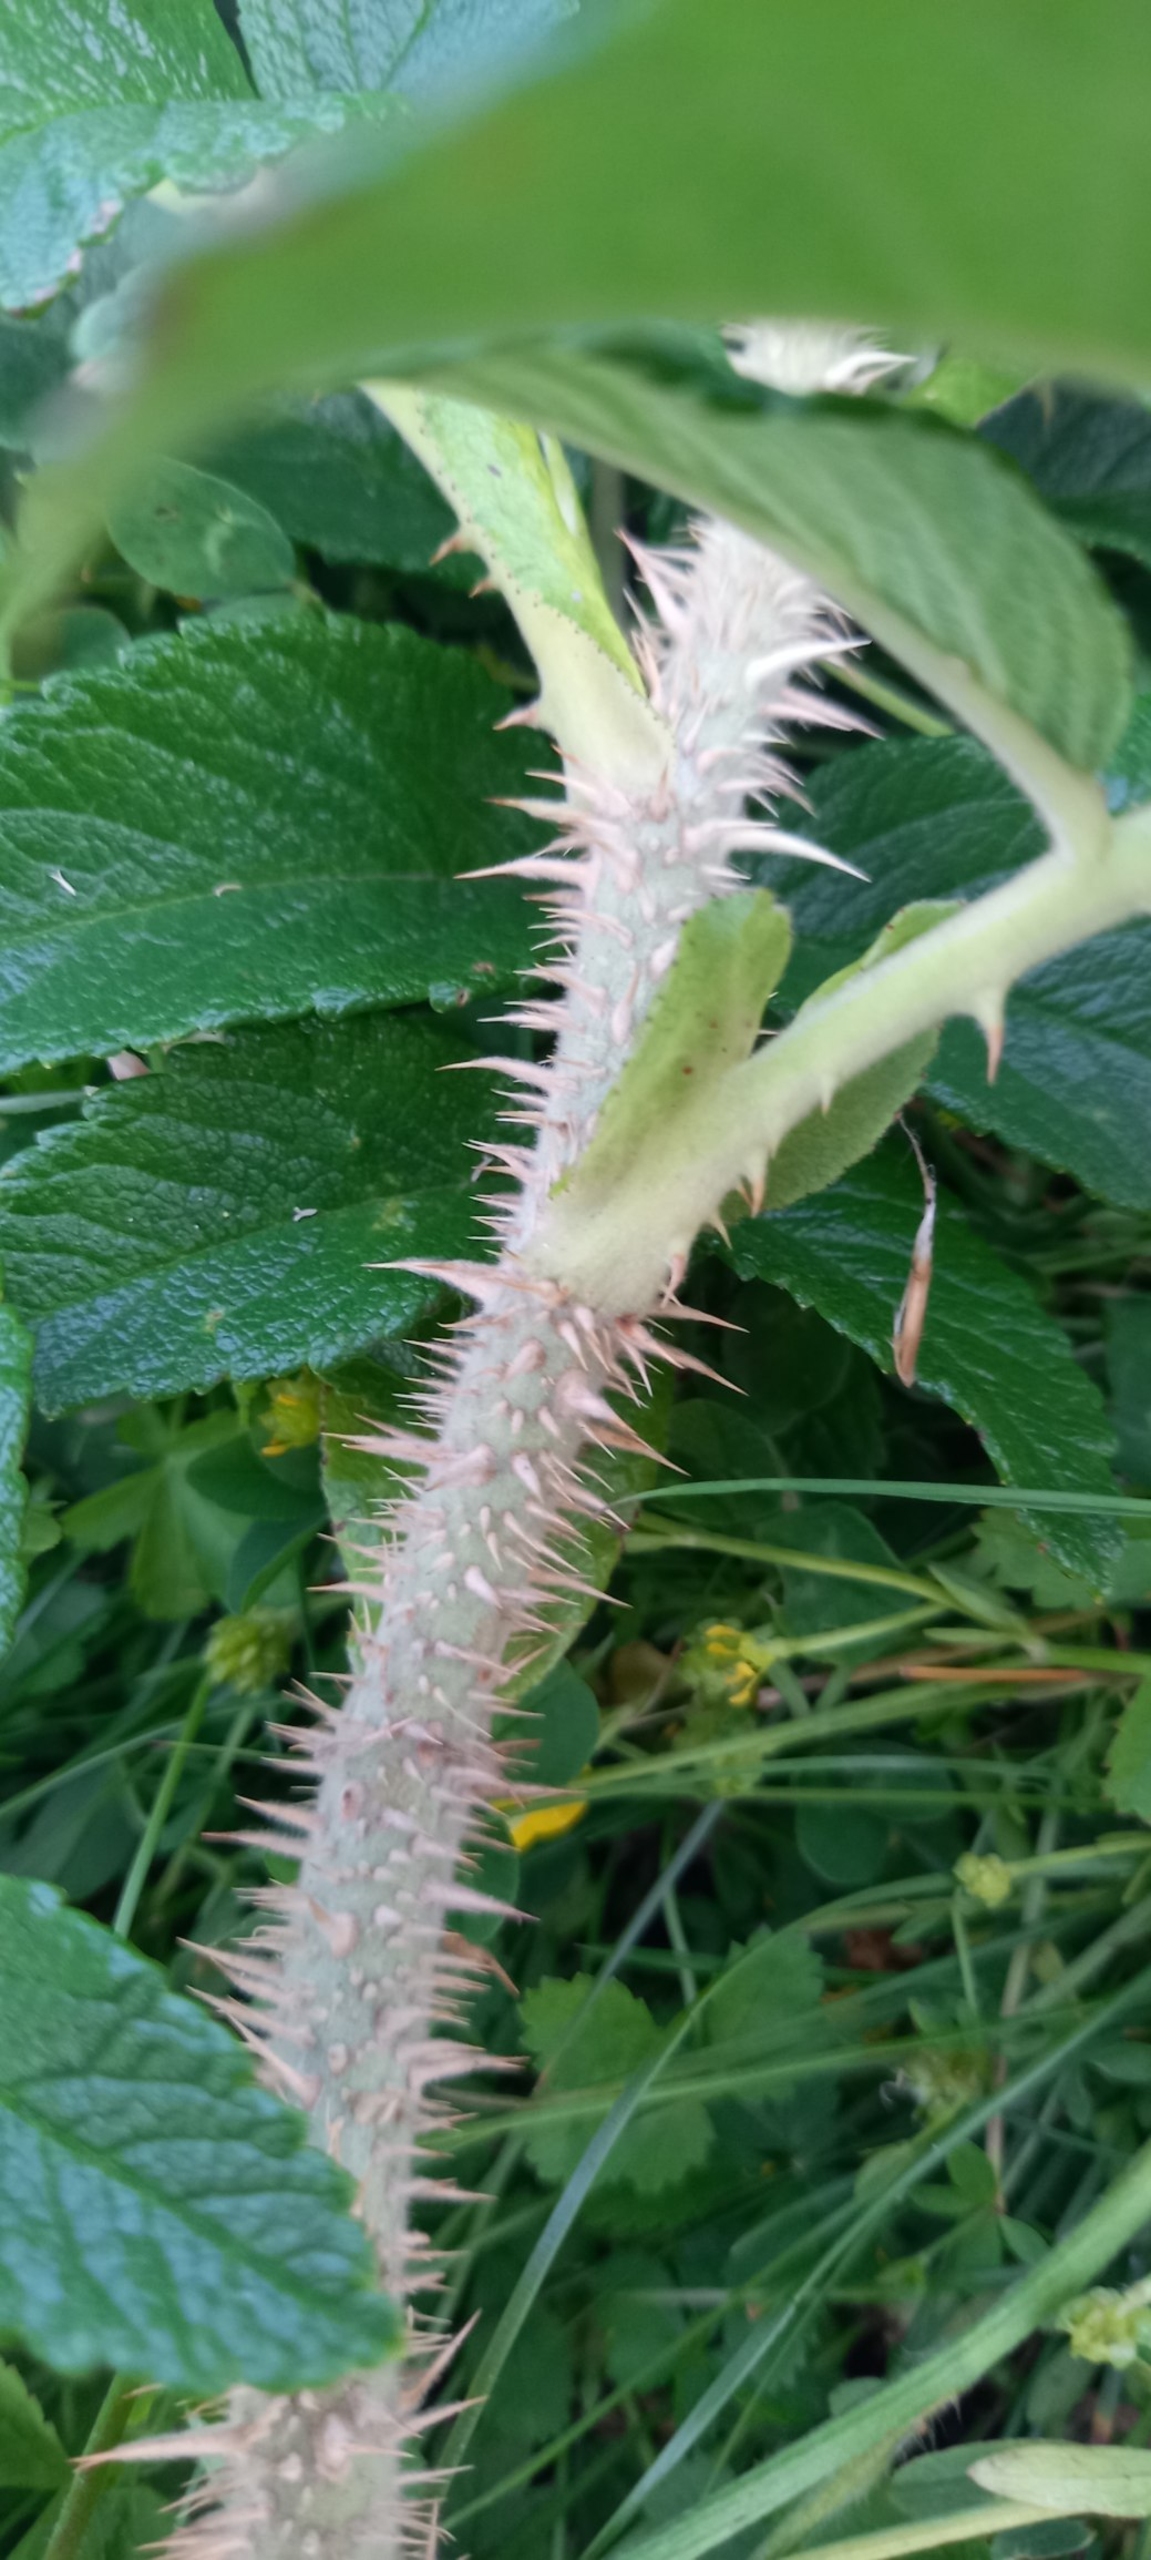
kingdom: Plantae
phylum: Tracheophyta
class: Magnoliopsida
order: Rosales
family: Rosaceae
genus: Rosa
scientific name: Rosa rugosa
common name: Rynket rose
